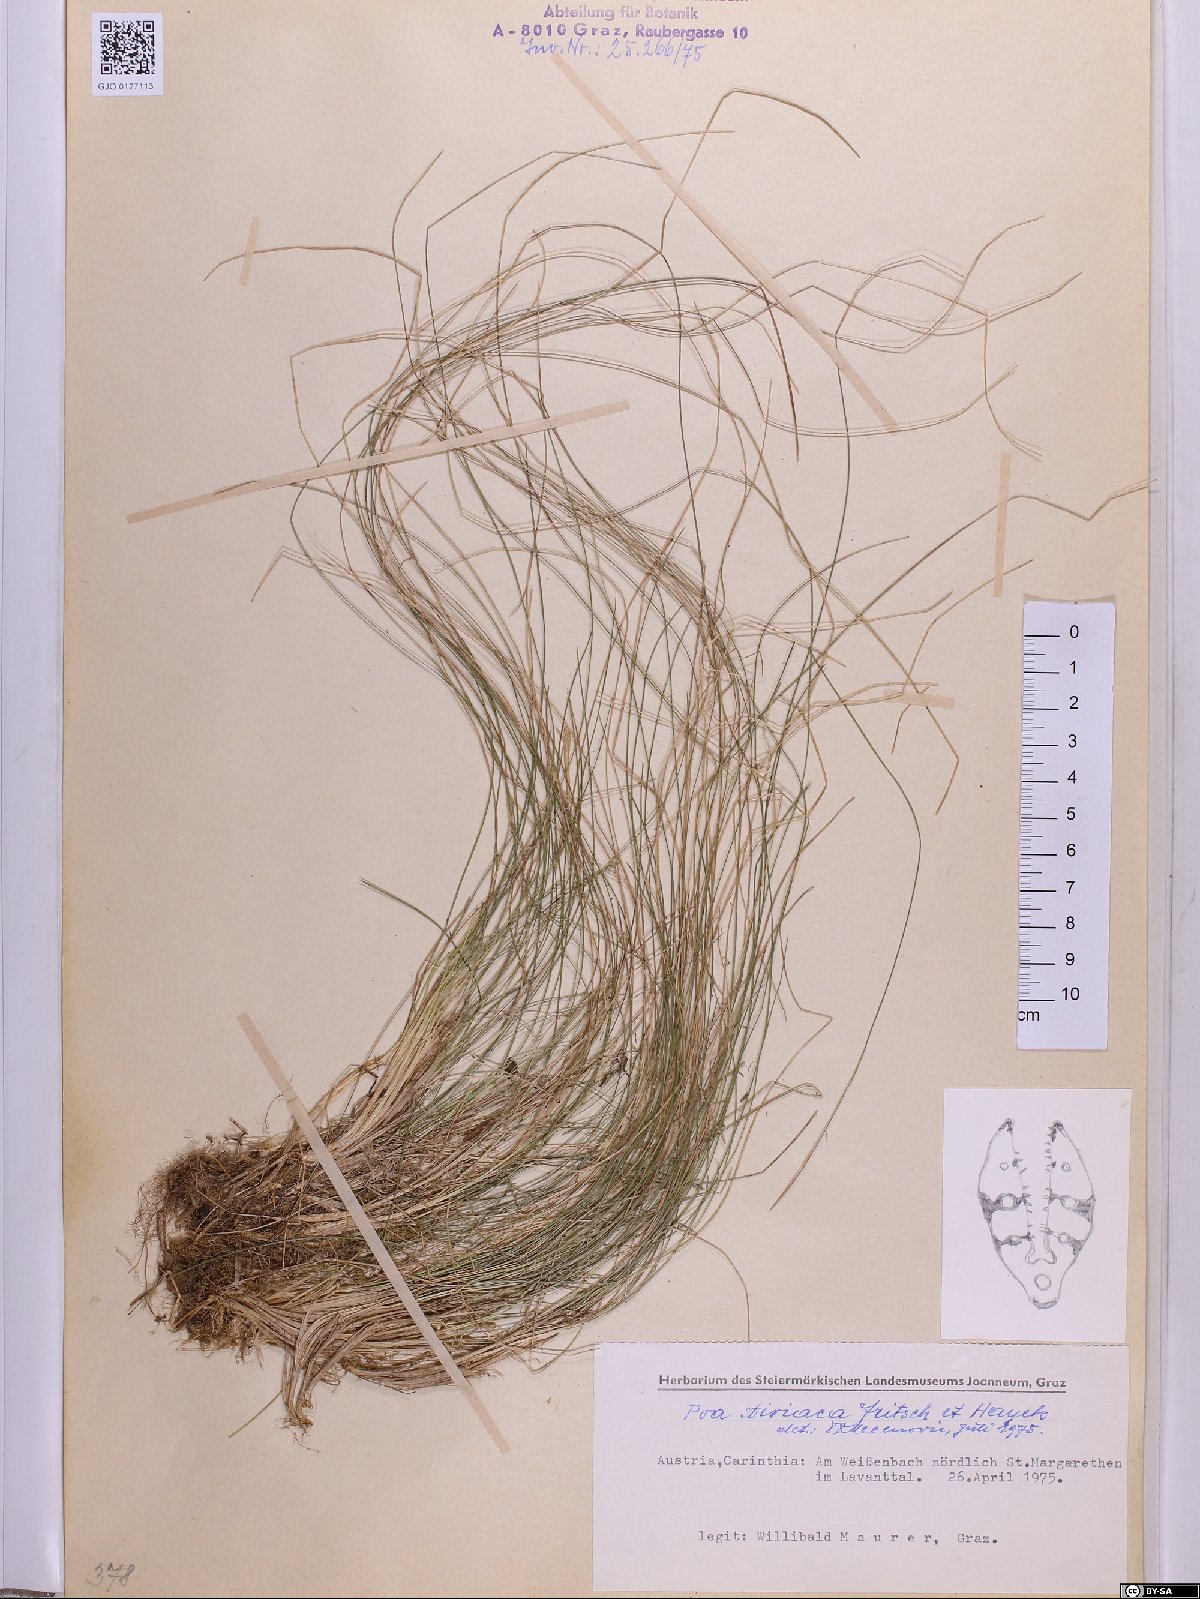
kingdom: Plantae
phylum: Tracheophyta
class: Liliopsida
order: Poales
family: Poaceae
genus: Poa
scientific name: Poa stiriaca
